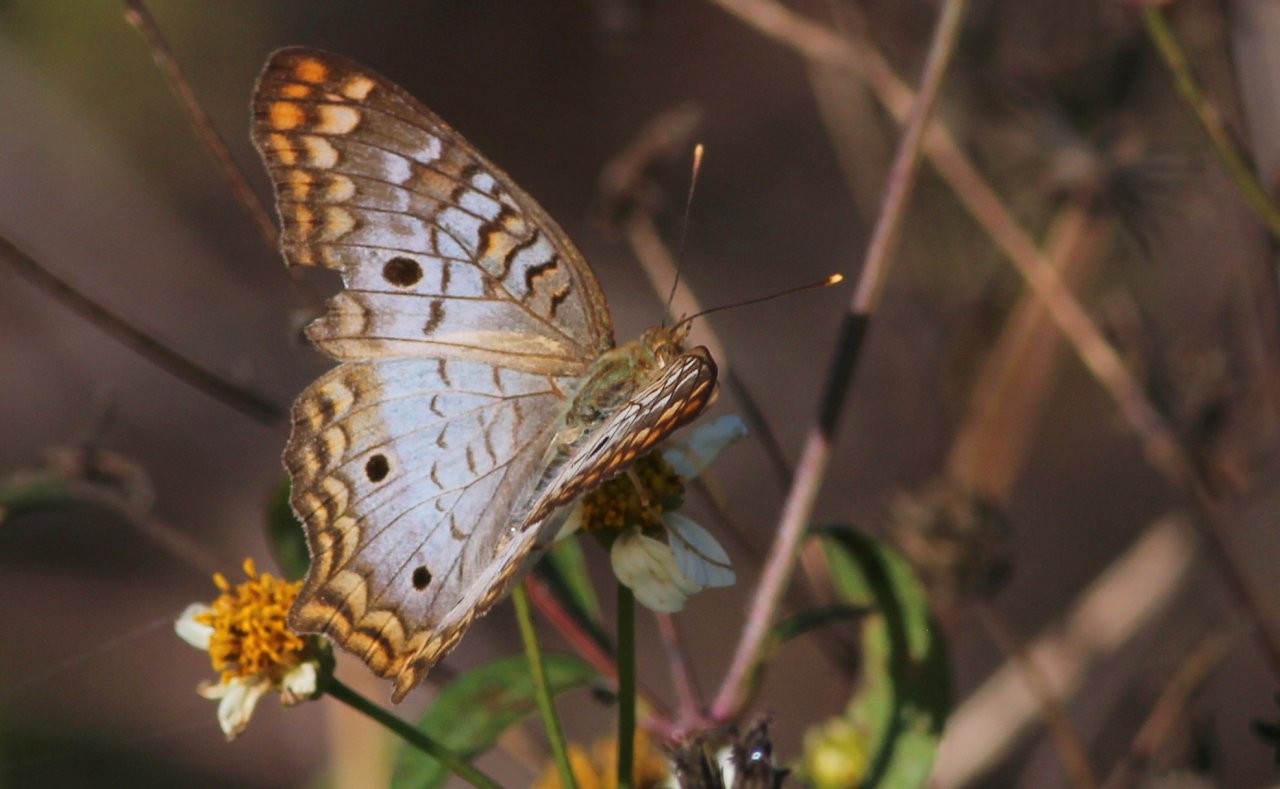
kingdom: Animalia
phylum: Arthropoda
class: Insecta
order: Lepidoptera
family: Nymphalidae
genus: Anartia
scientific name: Anartia jatrophae
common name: White Peacock
